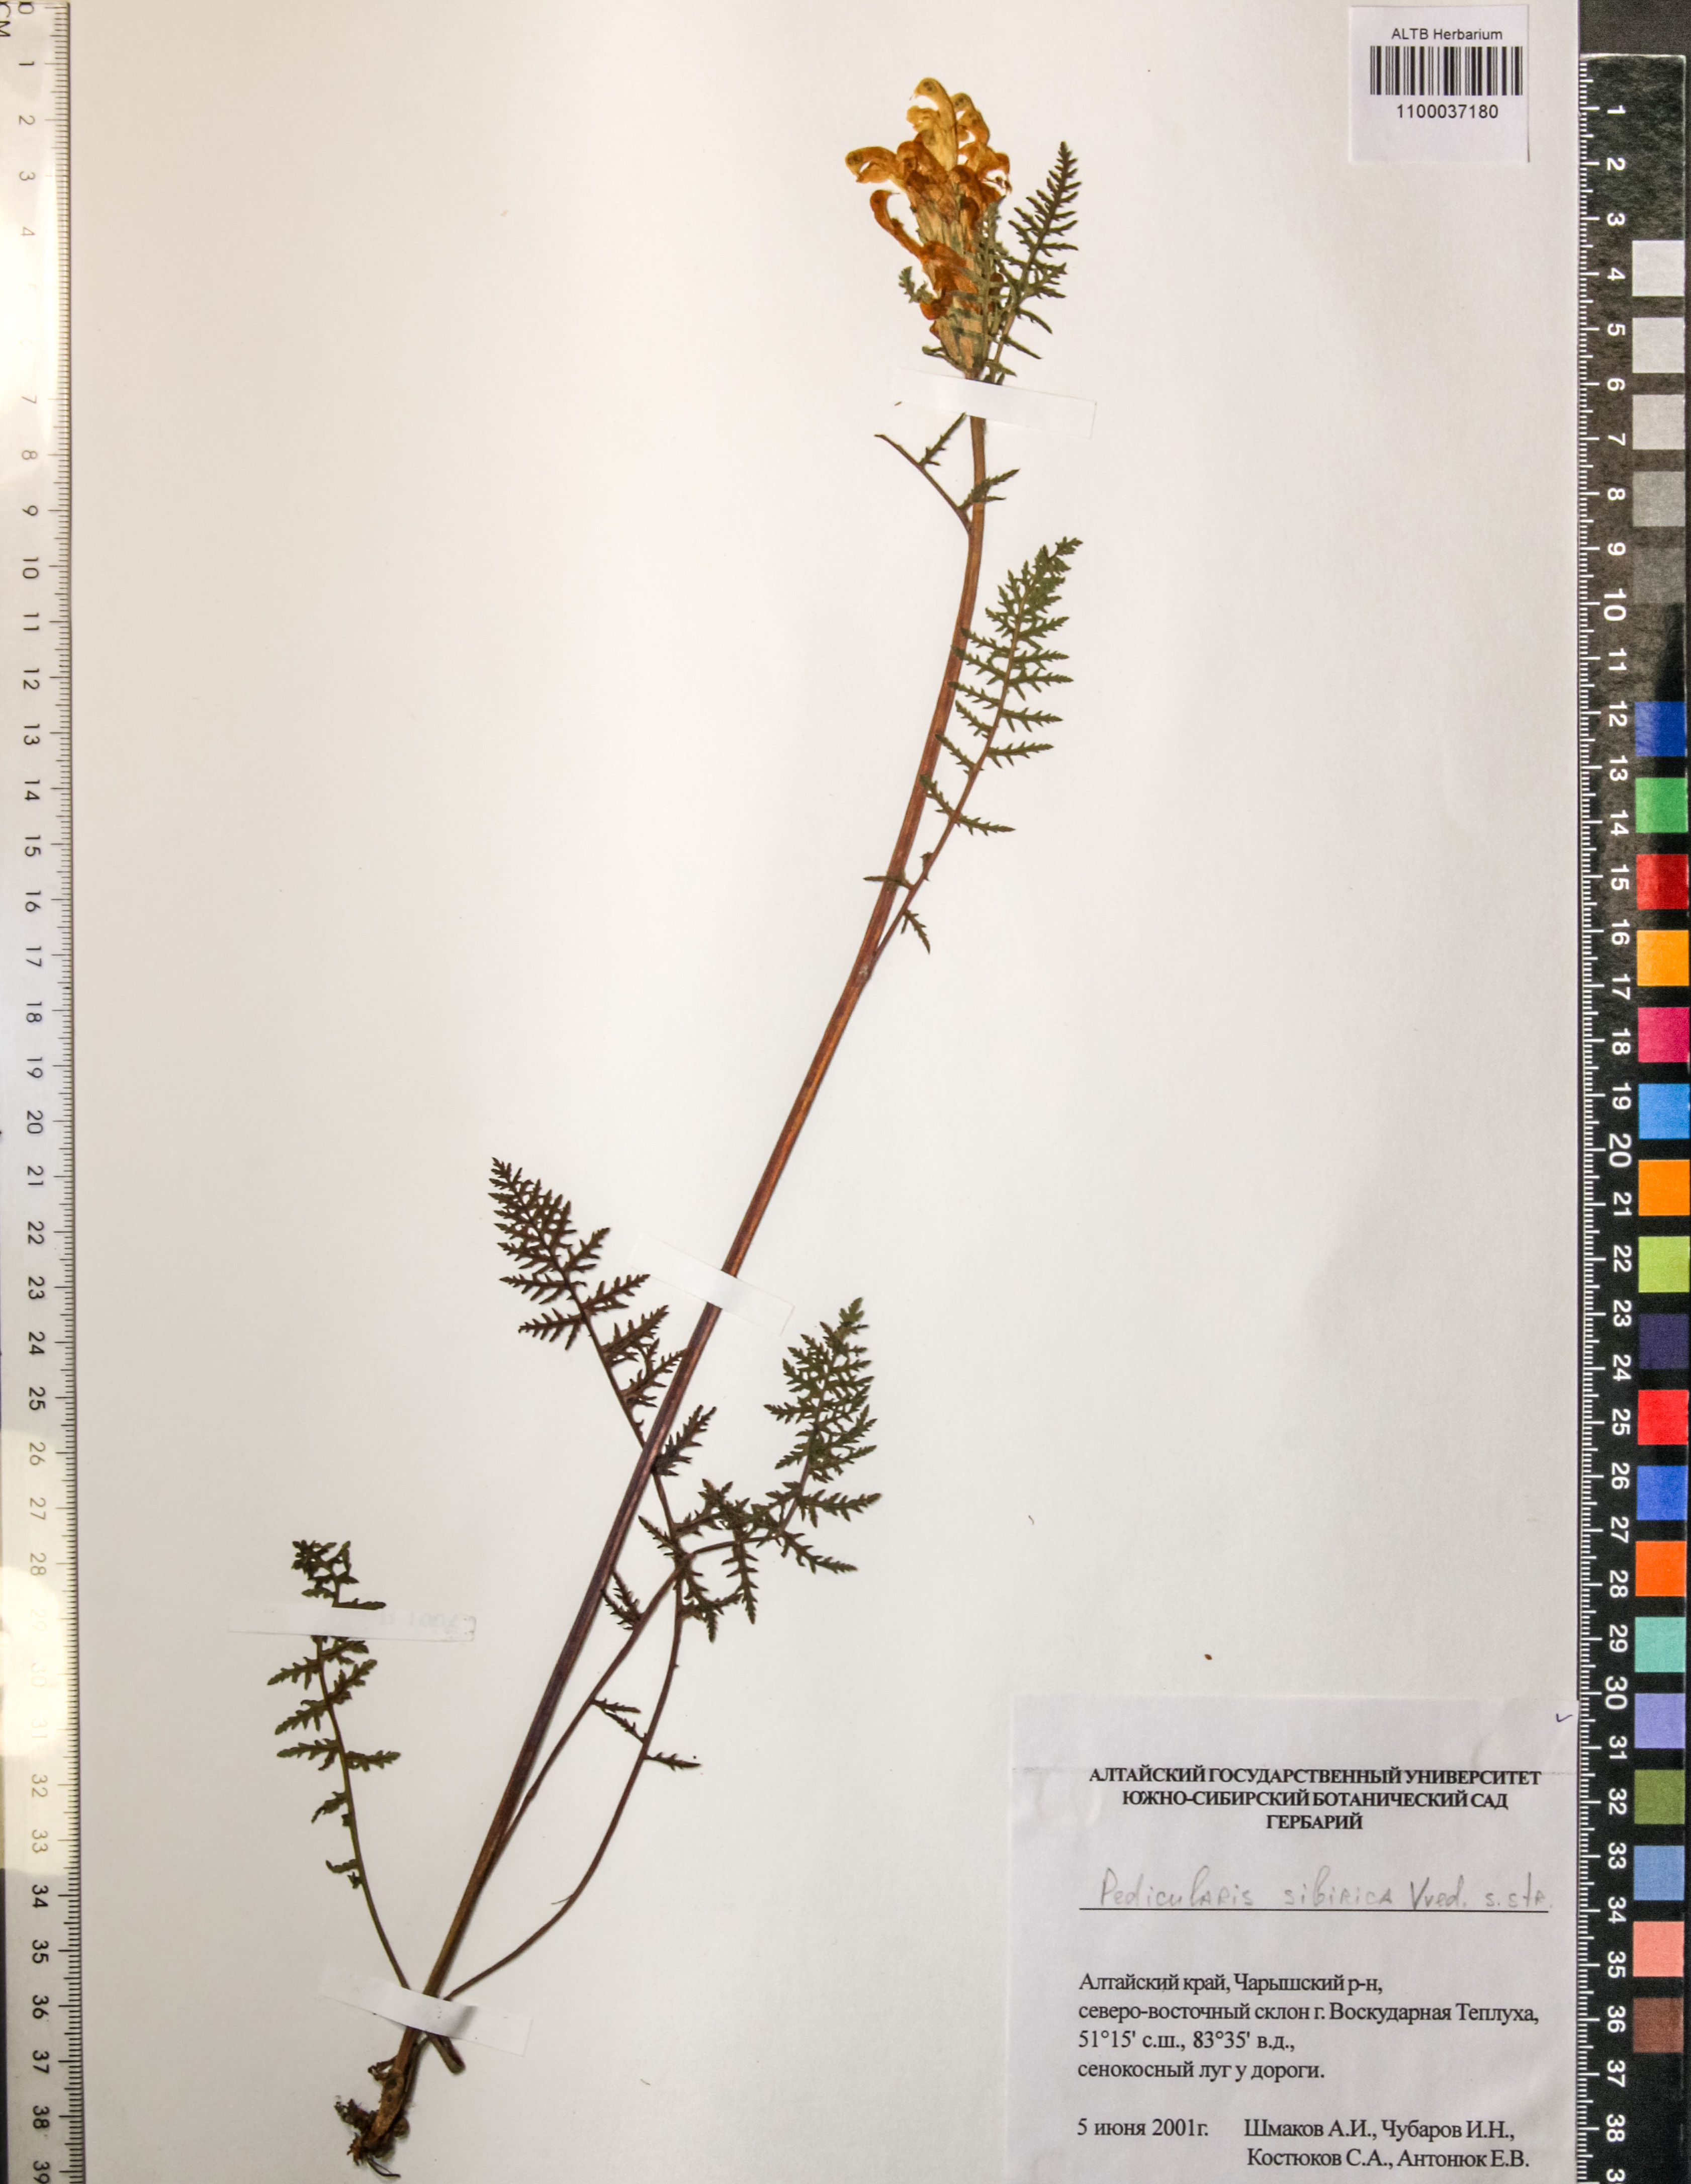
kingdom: Plantae
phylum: Tracheophyta
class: Magnoliopsida
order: Lamiales
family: Orobanchaceae
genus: Pedicularis
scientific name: Pedicularis sibirica
